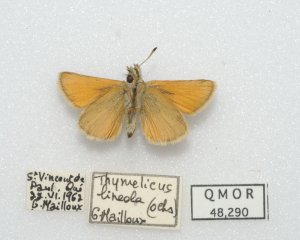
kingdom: Animalia
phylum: Arthropoda
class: Insecta
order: Lepidoptera
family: Hesperiidae
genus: Thymelicus
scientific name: Thymelicus lineola
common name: European Skipper
